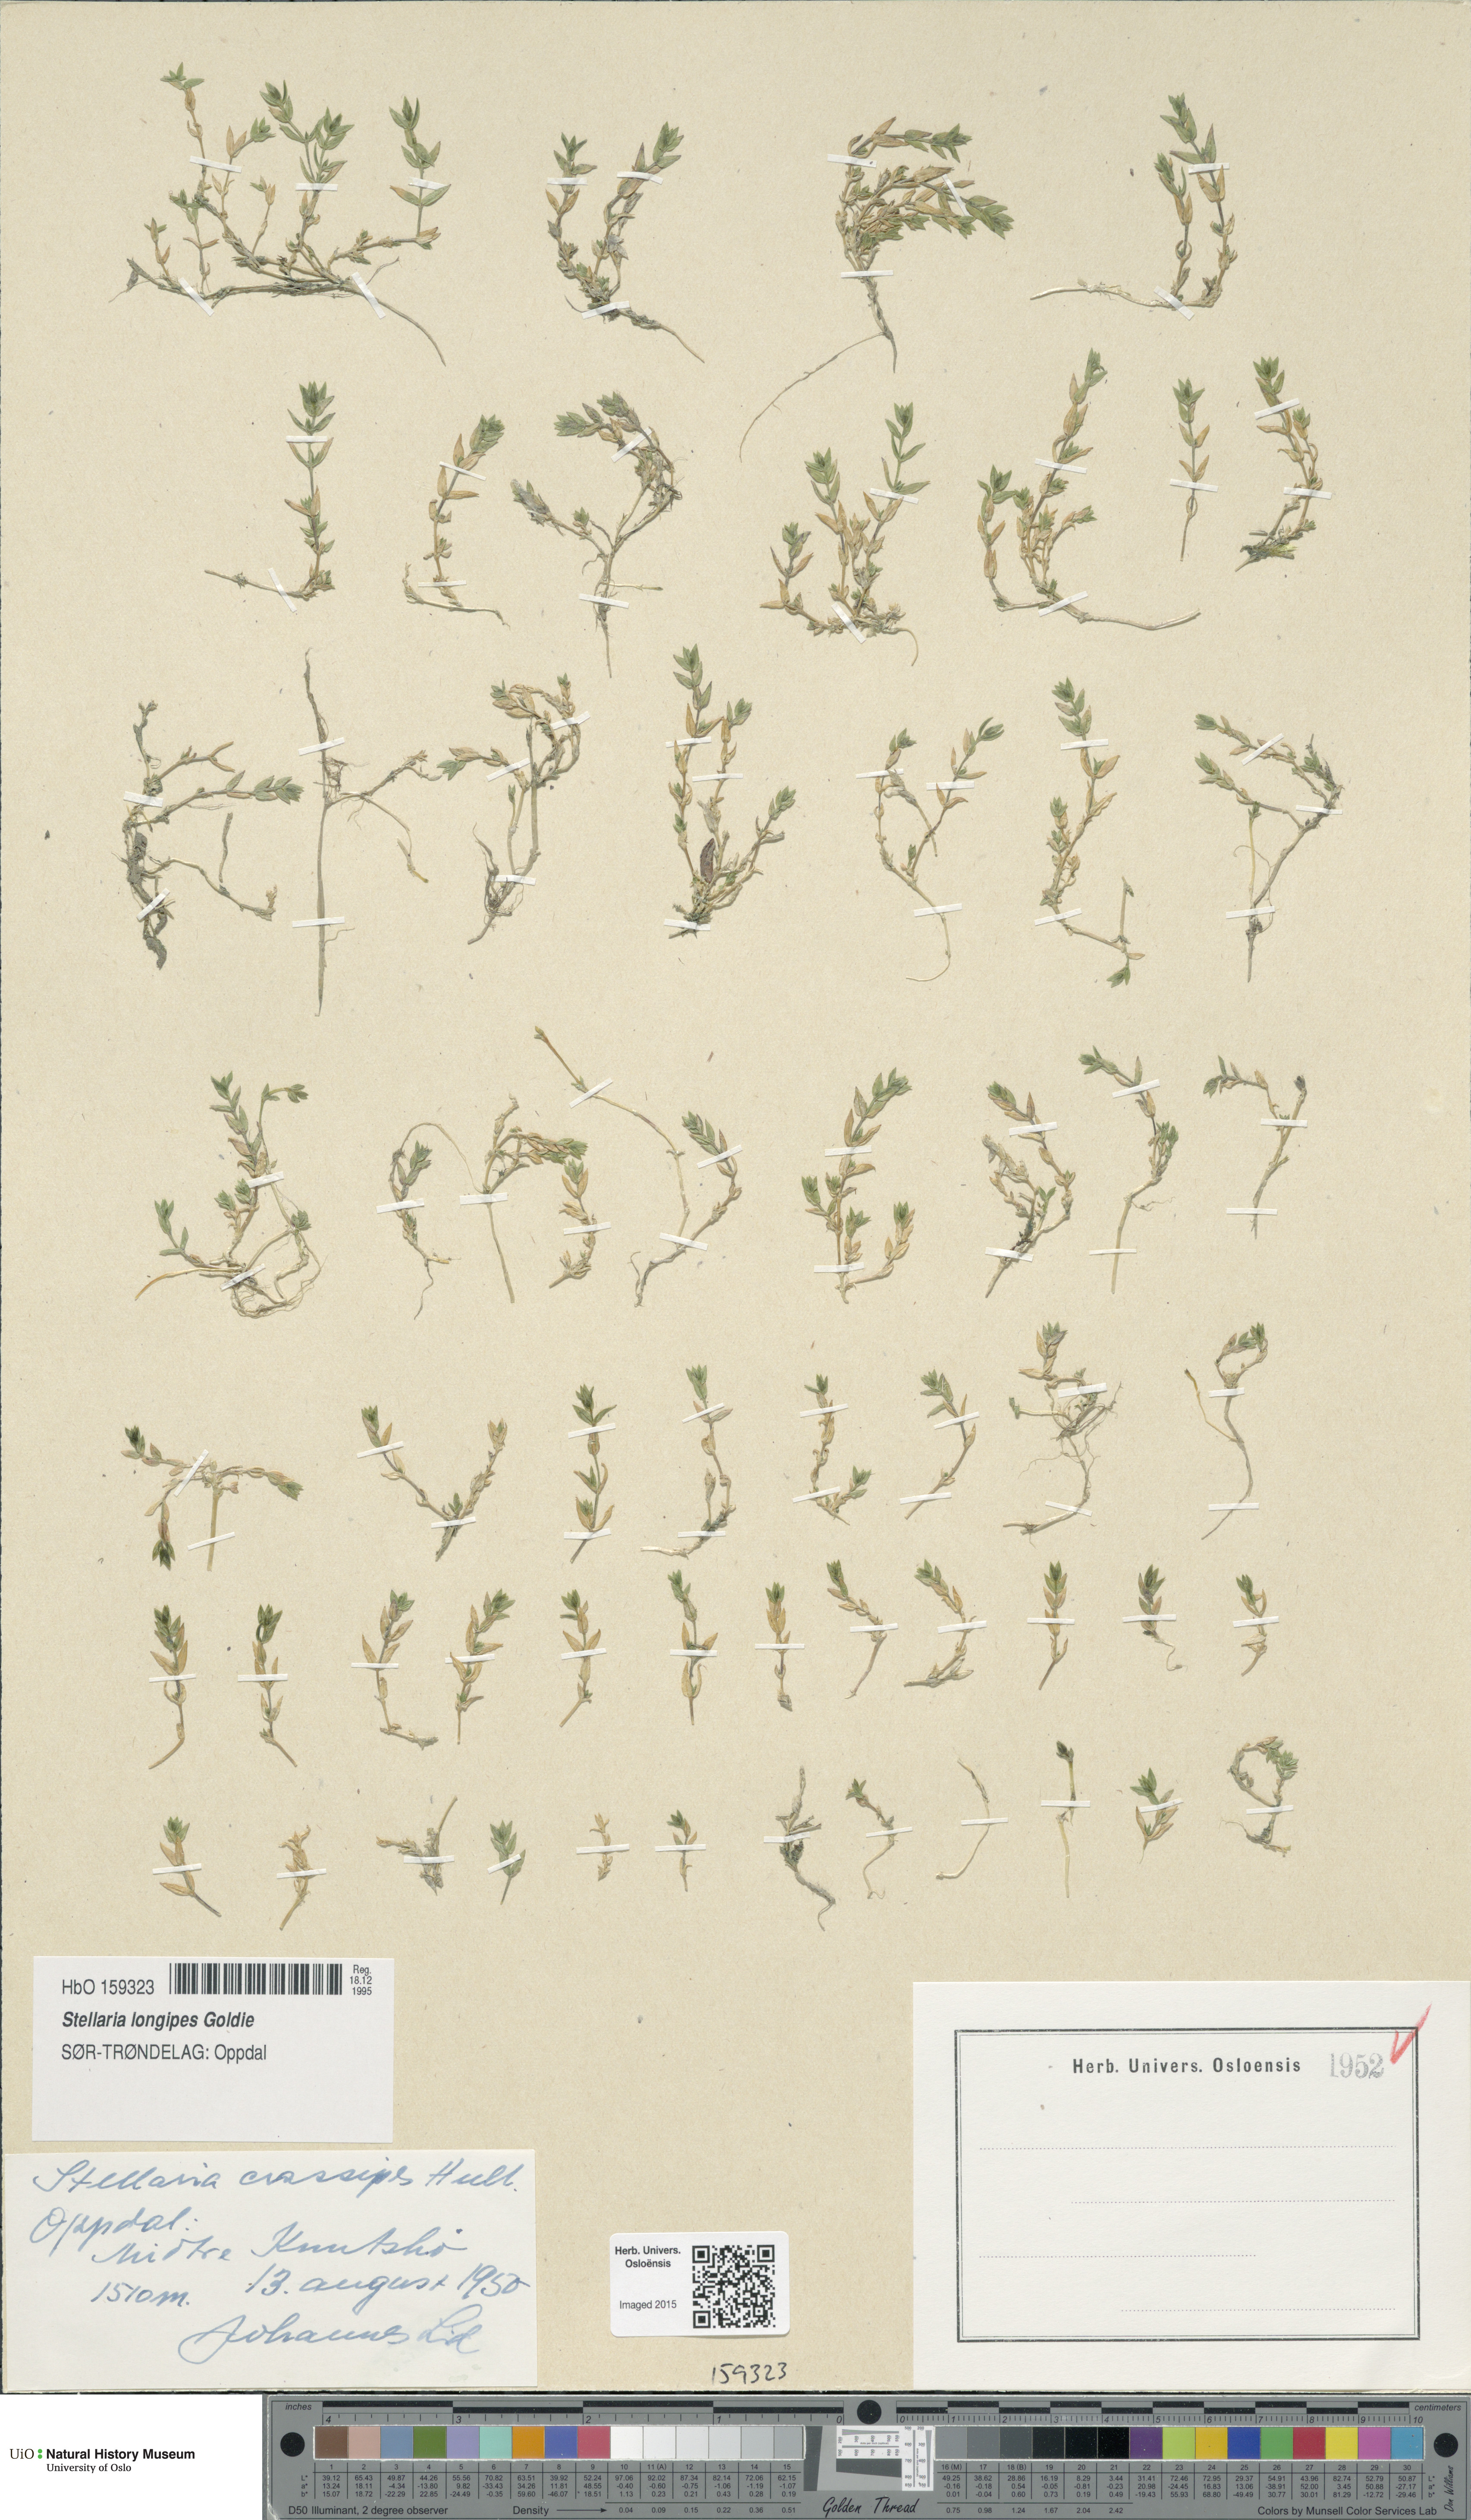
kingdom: Plantae
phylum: Tracheophyta
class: Magnoliopsida
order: Caryophyllales
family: Caryophyllaceae
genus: Stellaria
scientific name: Stellaria longipes
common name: Goldie's starwort
